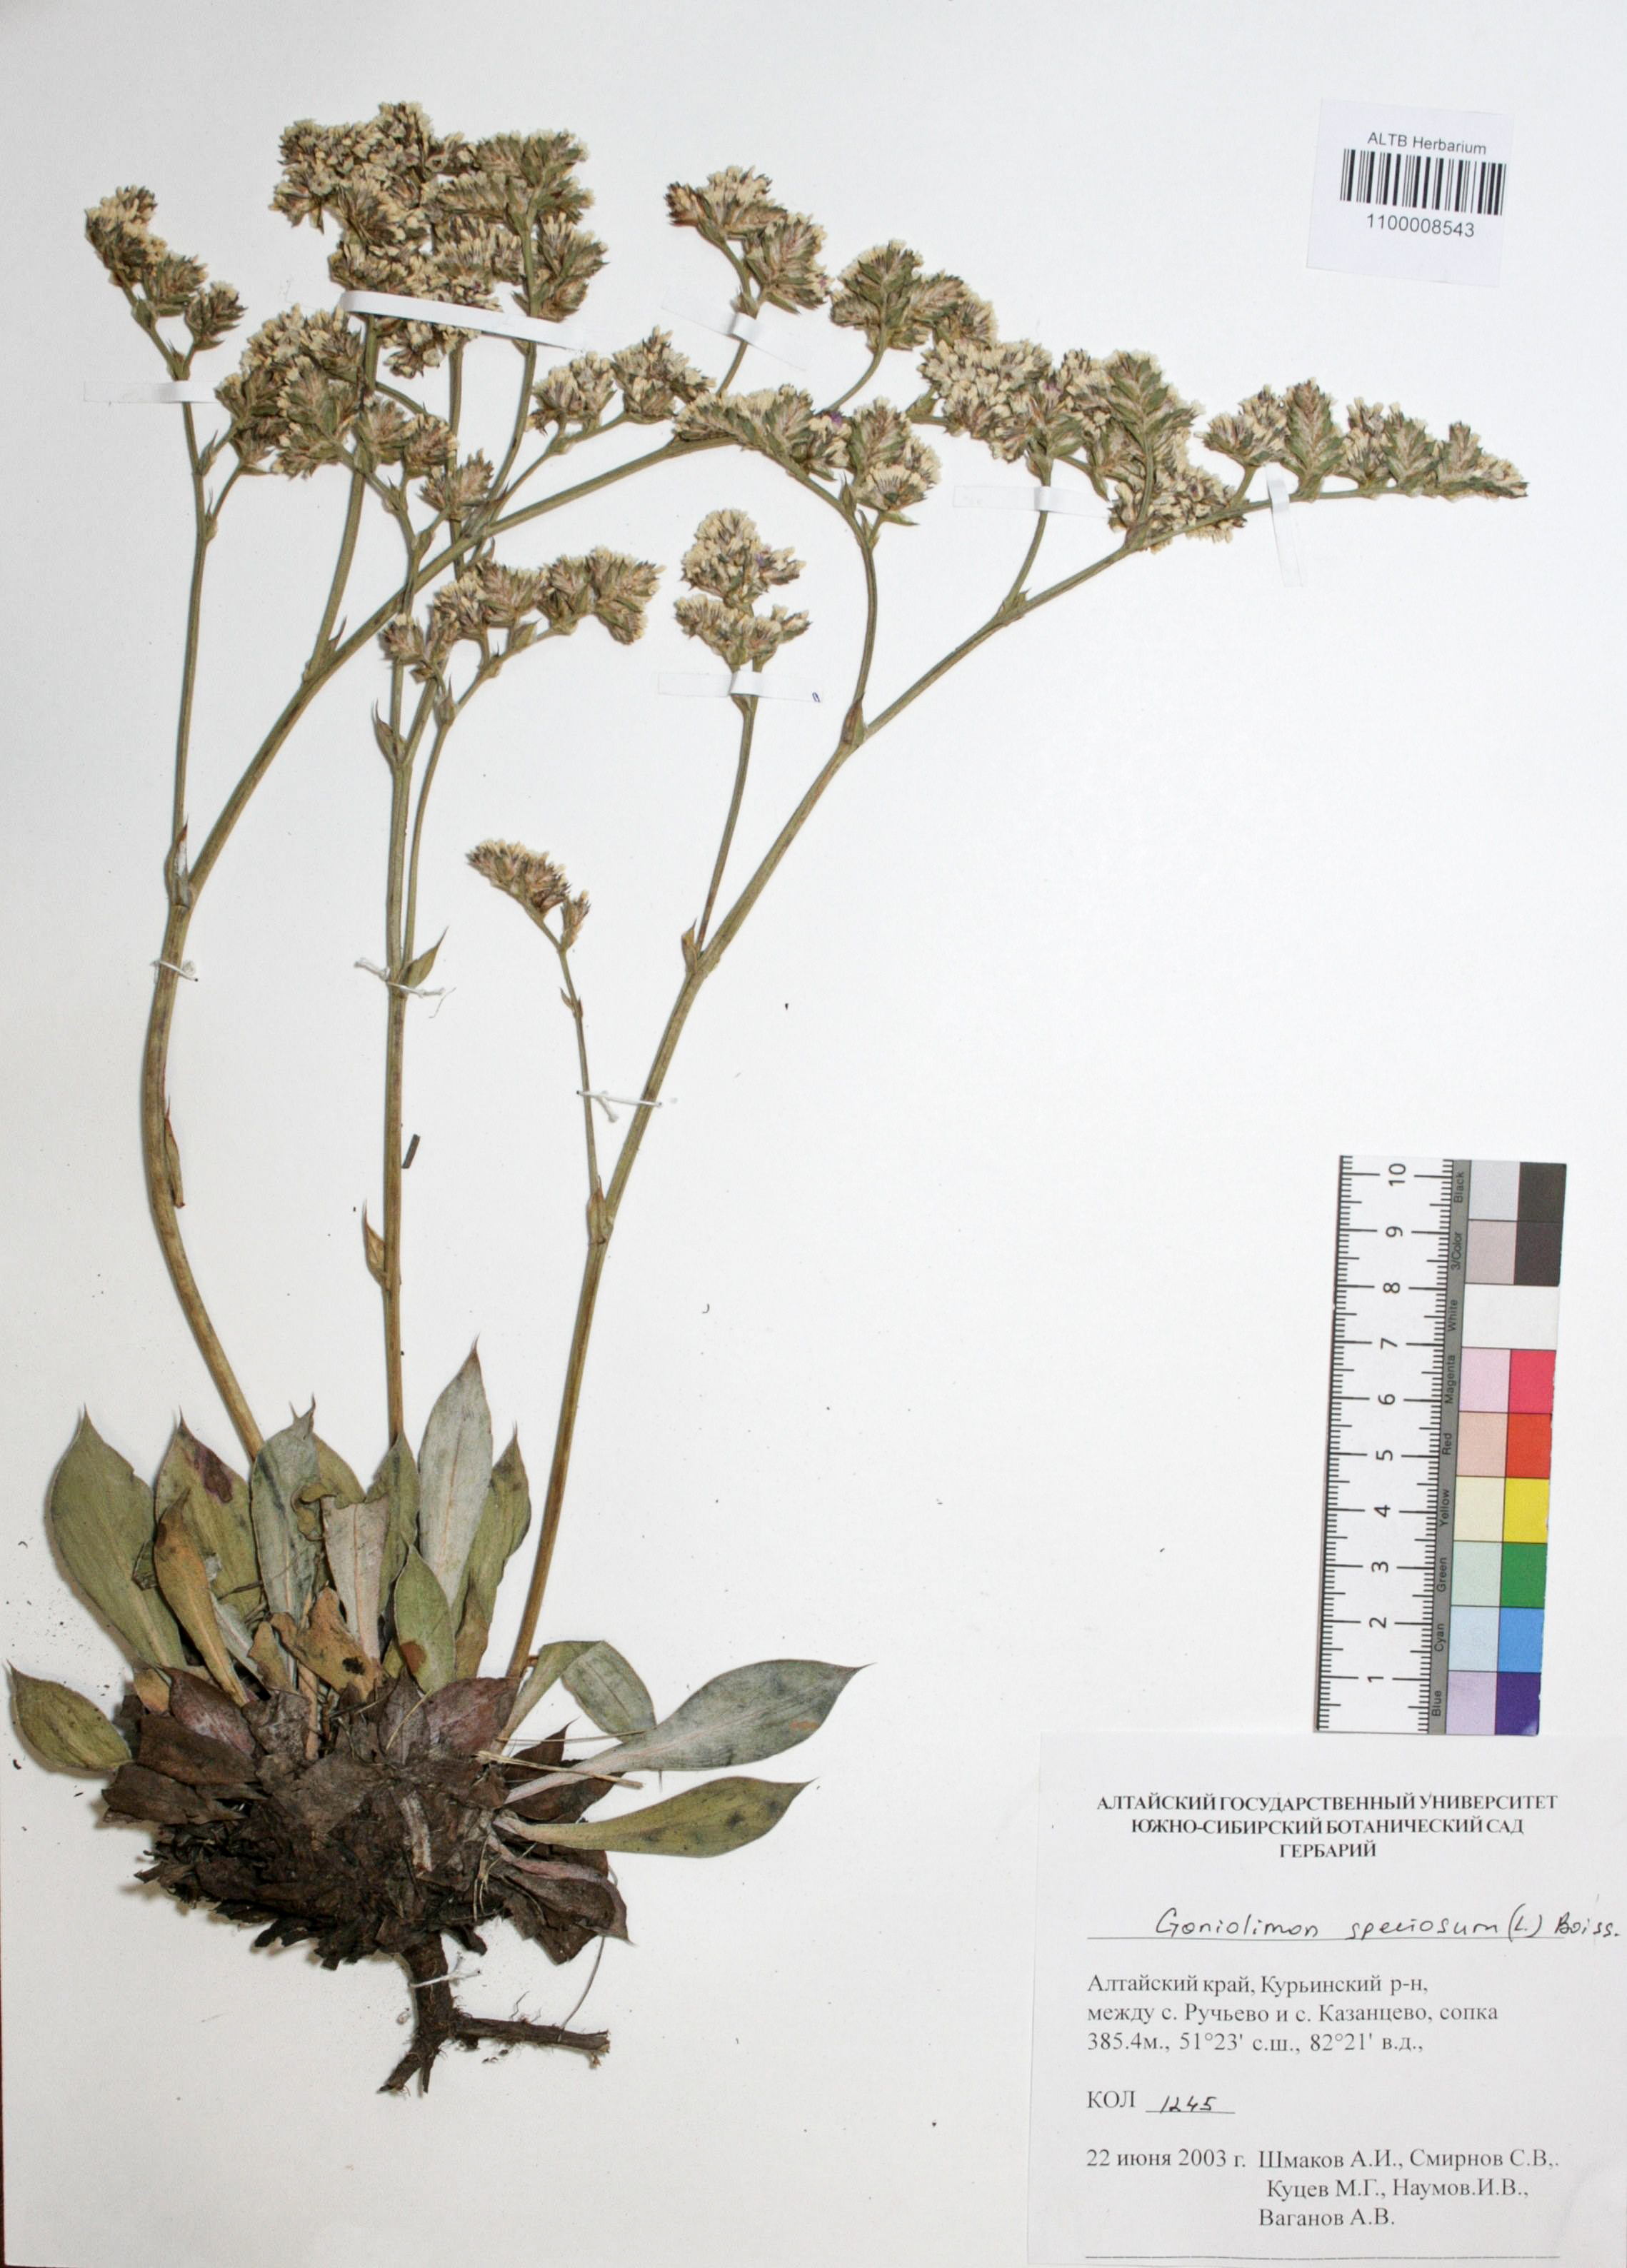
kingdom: Plantae
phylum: Tracheophyta
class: Magnoliopsida
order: Caryophyllales
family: Plumbaginaceae
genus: Goniolimon
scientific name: Goniolimon speciosum
